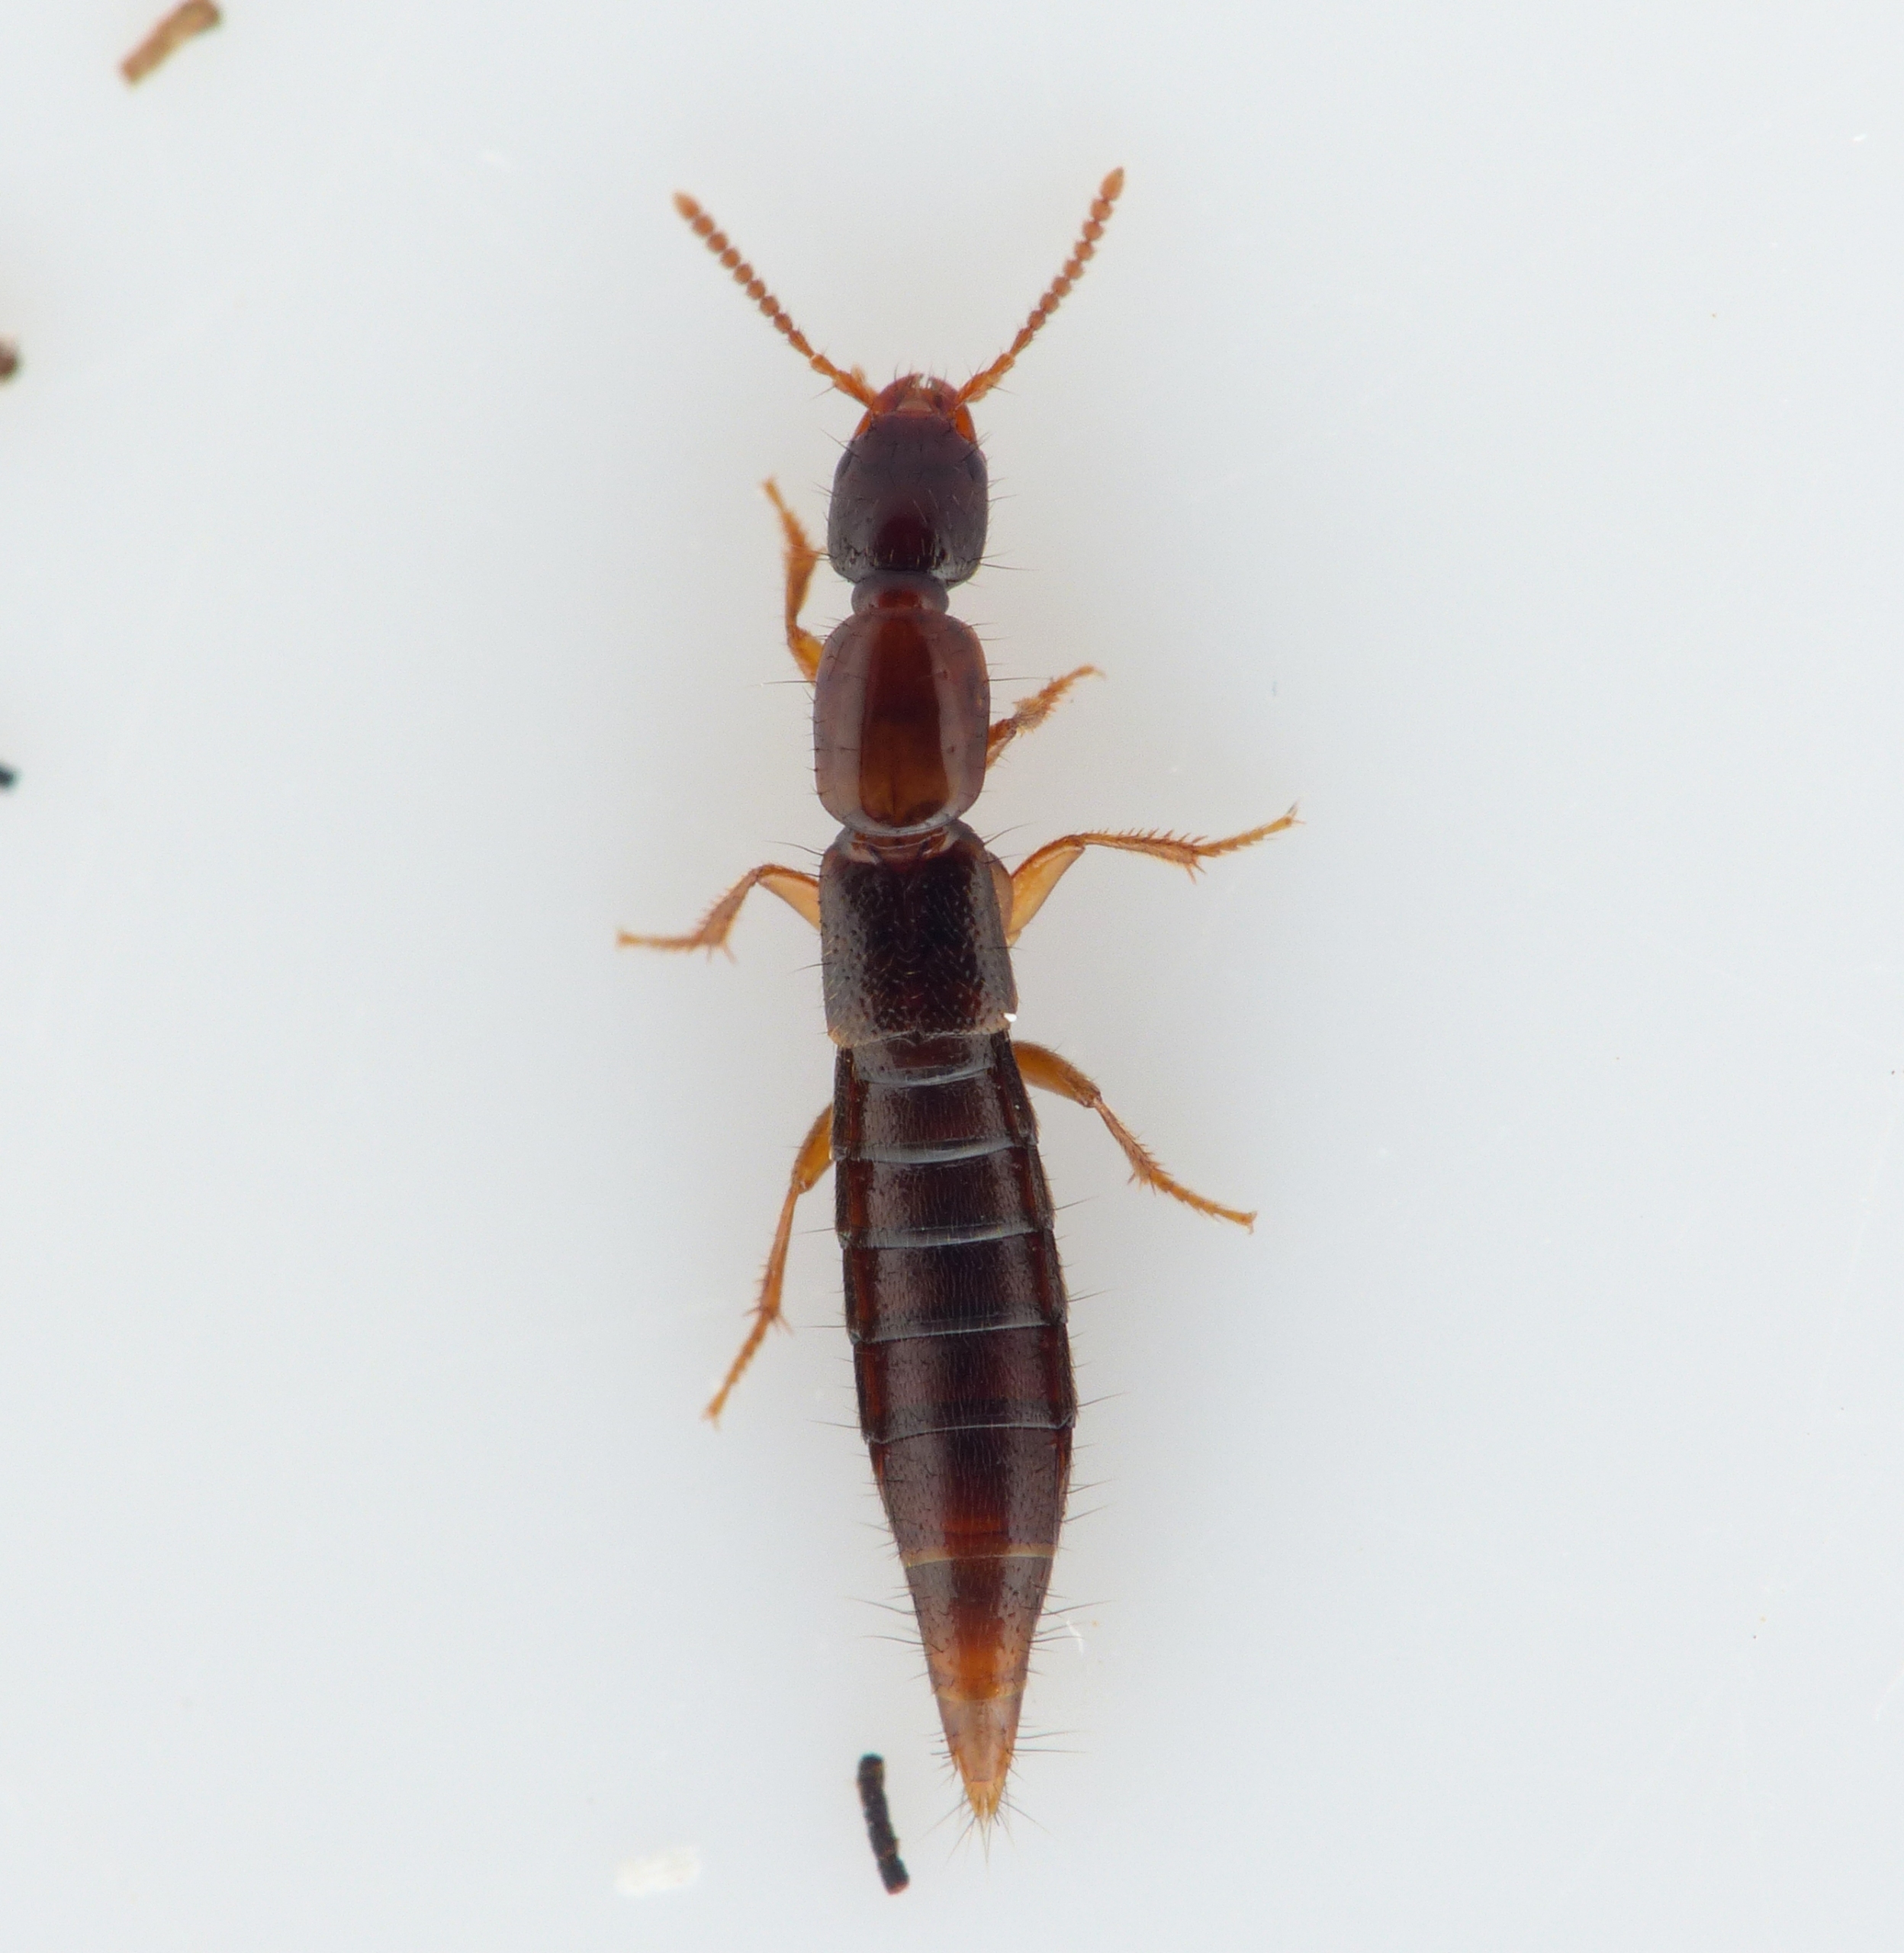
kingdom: Animalia
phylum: Arthropoda
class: Insecta
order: Coleoptera
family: Staphylinidae
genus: Othius
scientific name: Othius subuliformis
